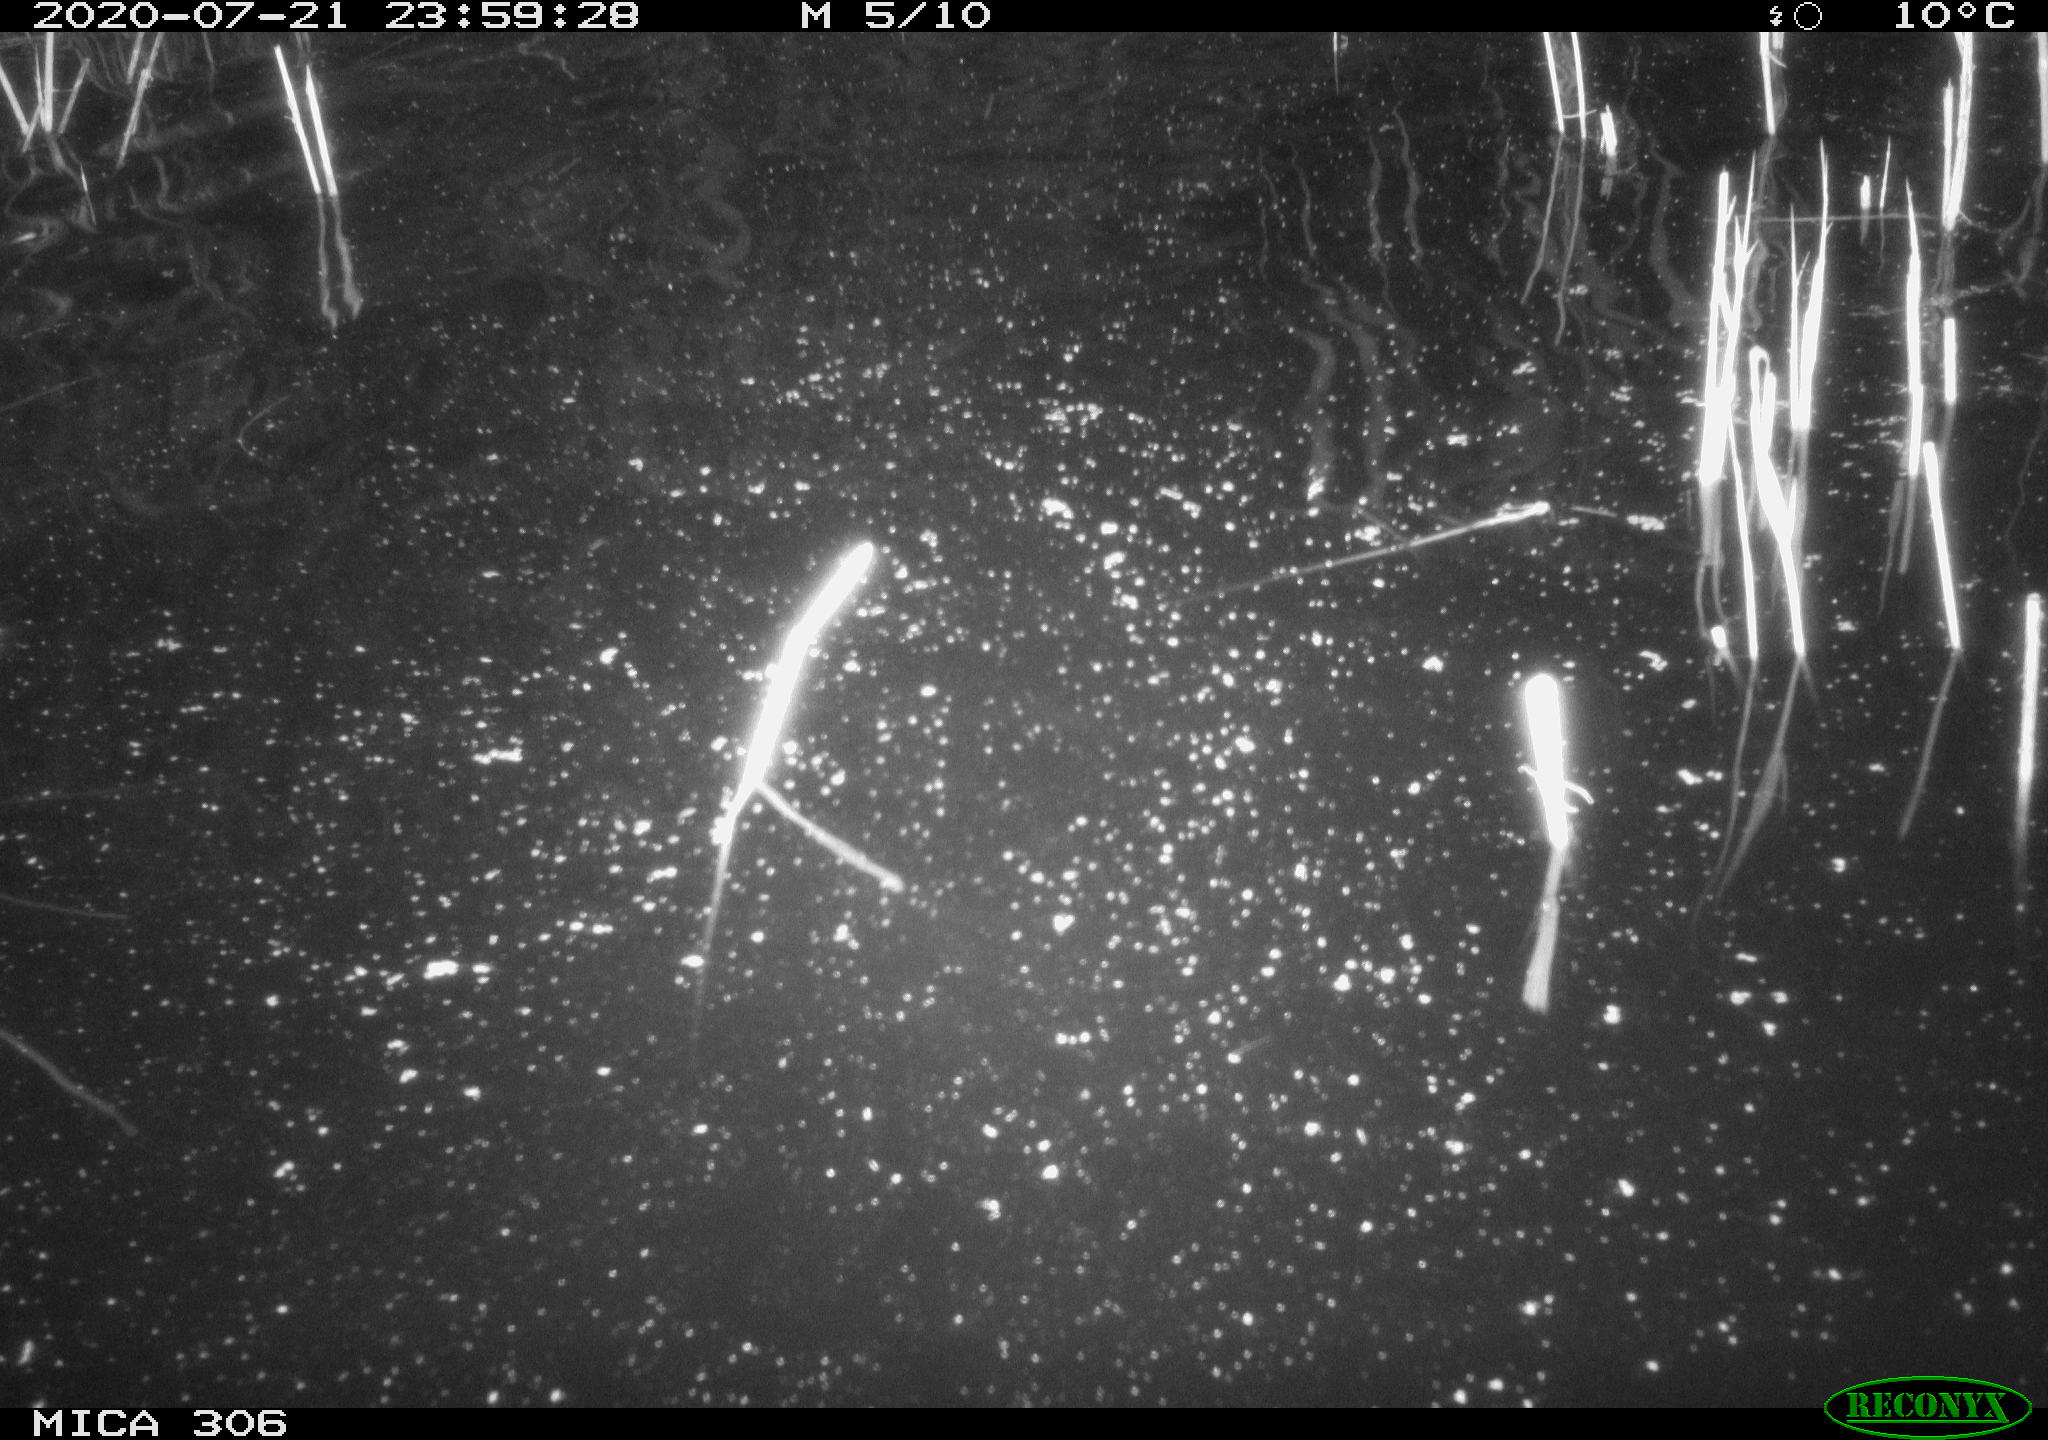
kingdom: Animalia
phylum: Chordata
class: Mammalia
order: Rodentia
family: Cricetidae
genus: Ondatra
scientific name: Ondatra zibethicus
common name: Muskrat
